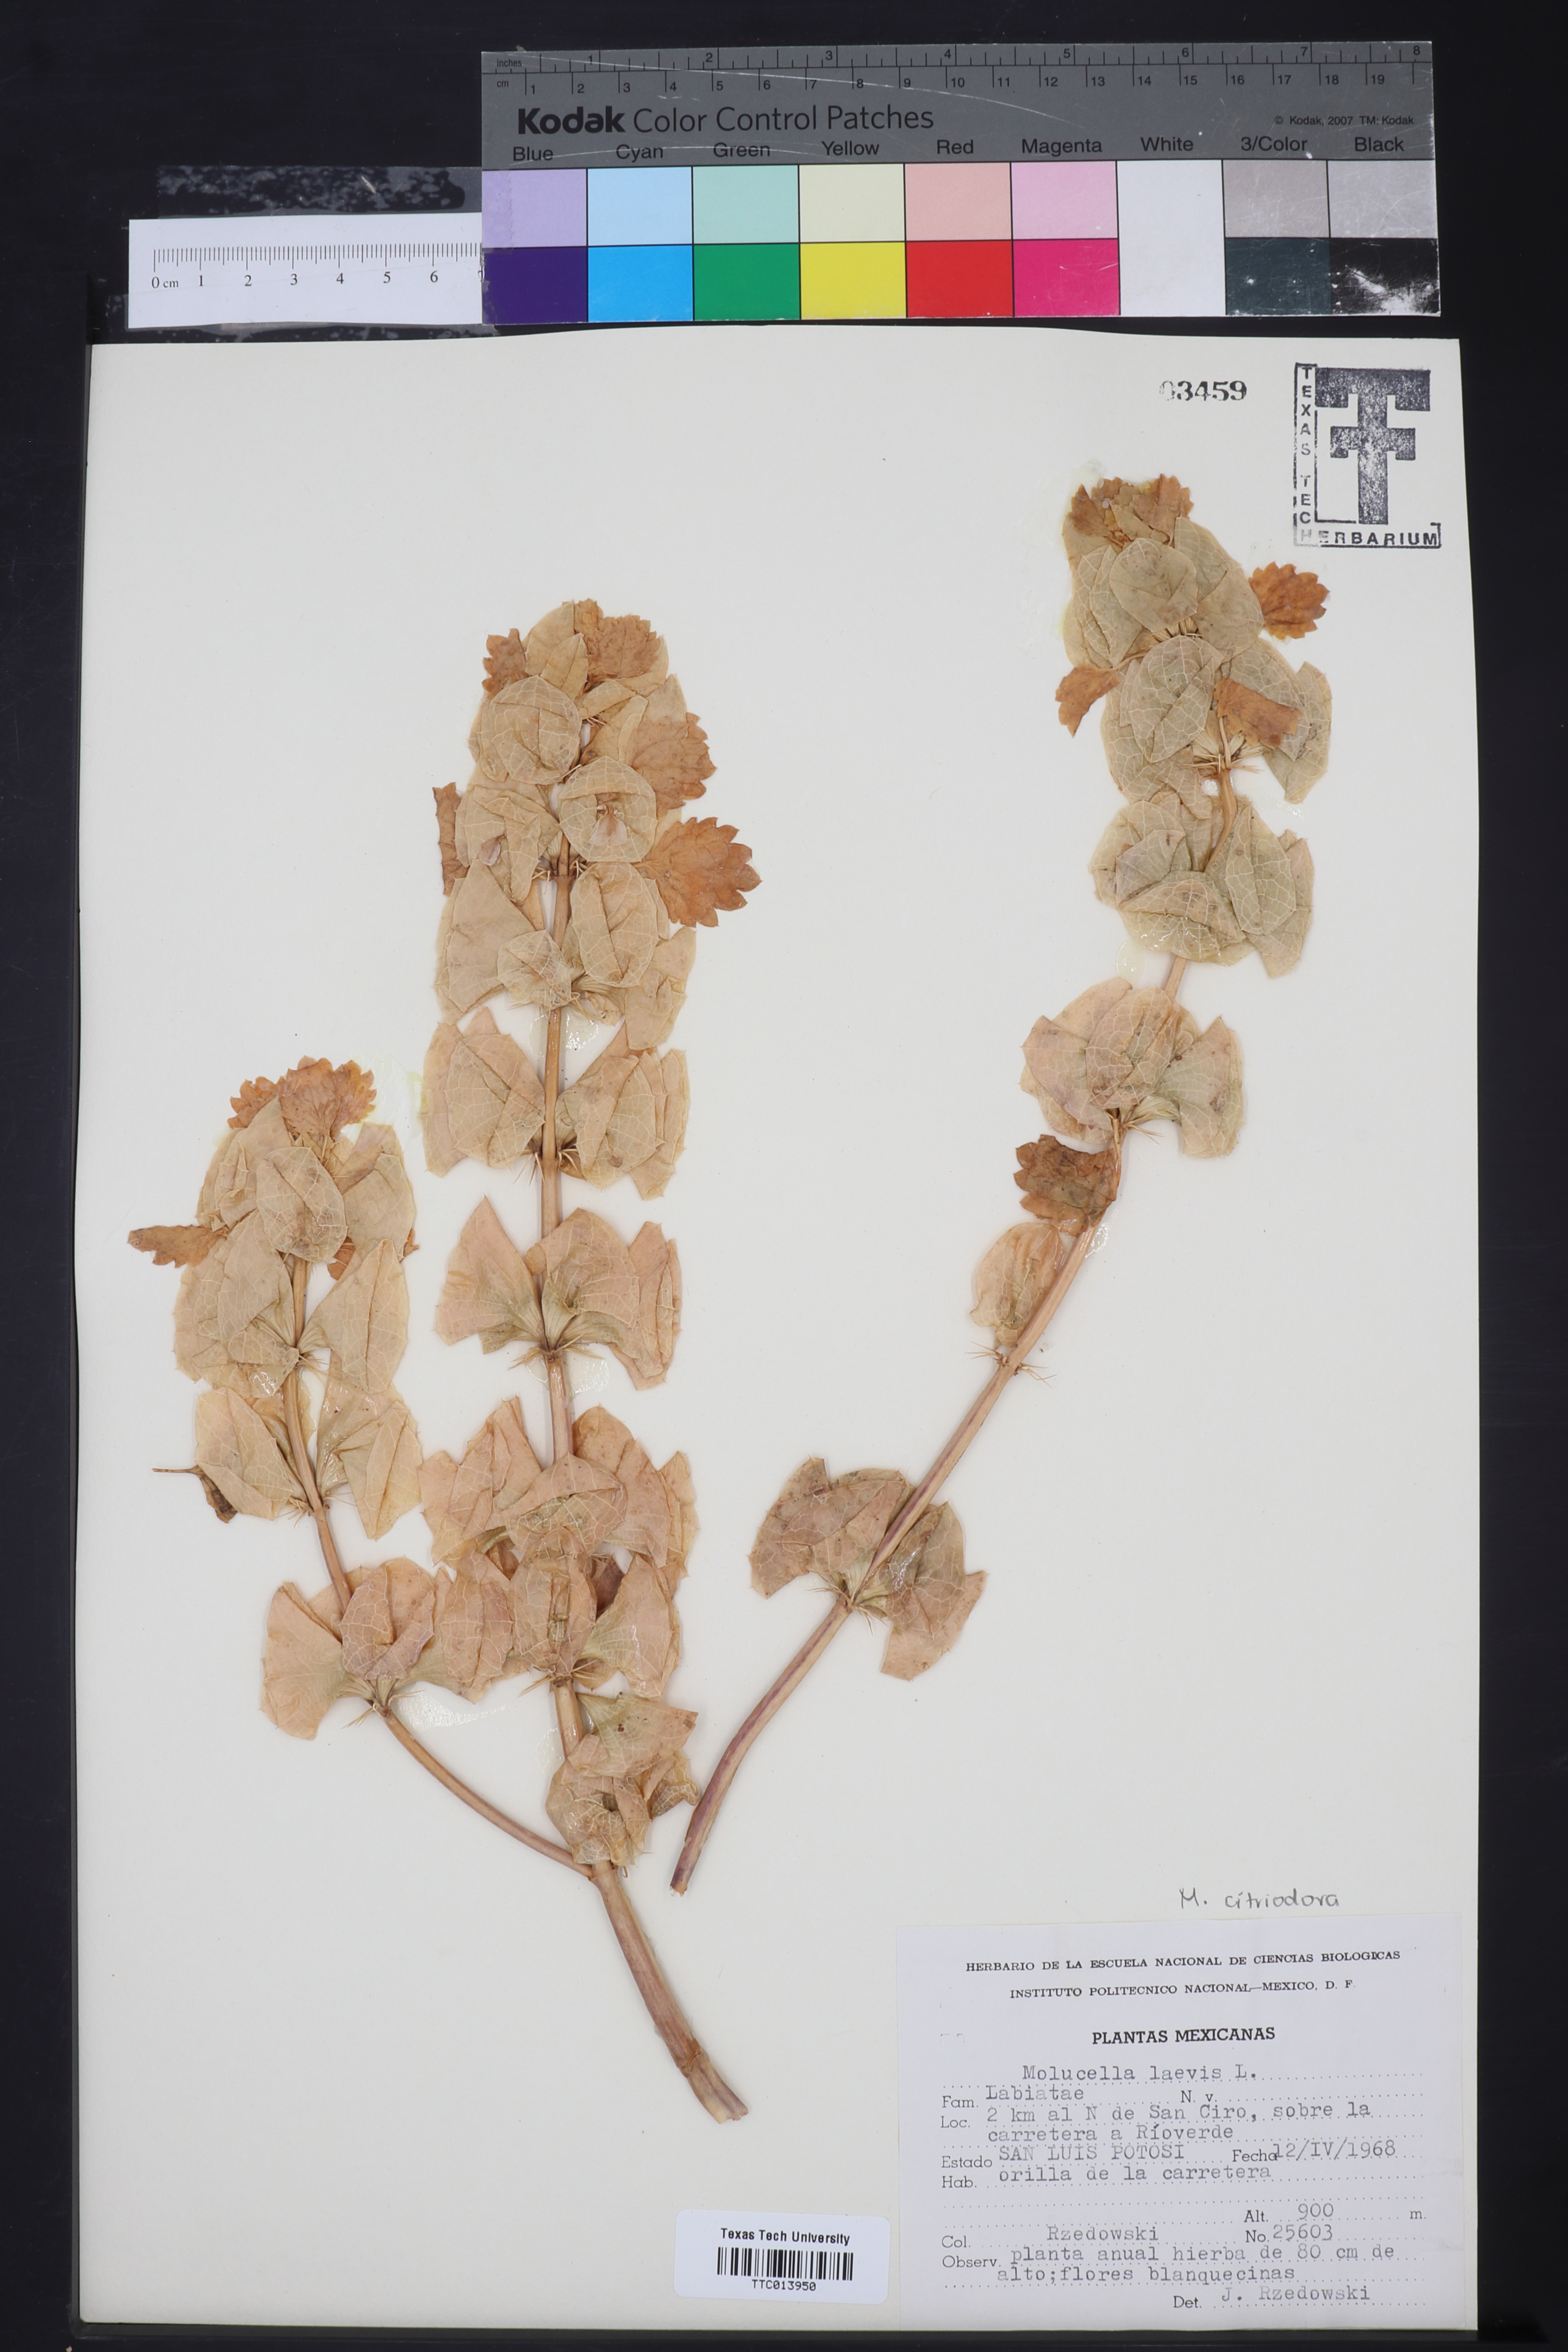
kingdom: Plantae
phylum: Tracheophyta
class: Magnoliopsida
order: Lamiales
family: Lamiaceae
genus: Molucella
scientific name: Molucella
